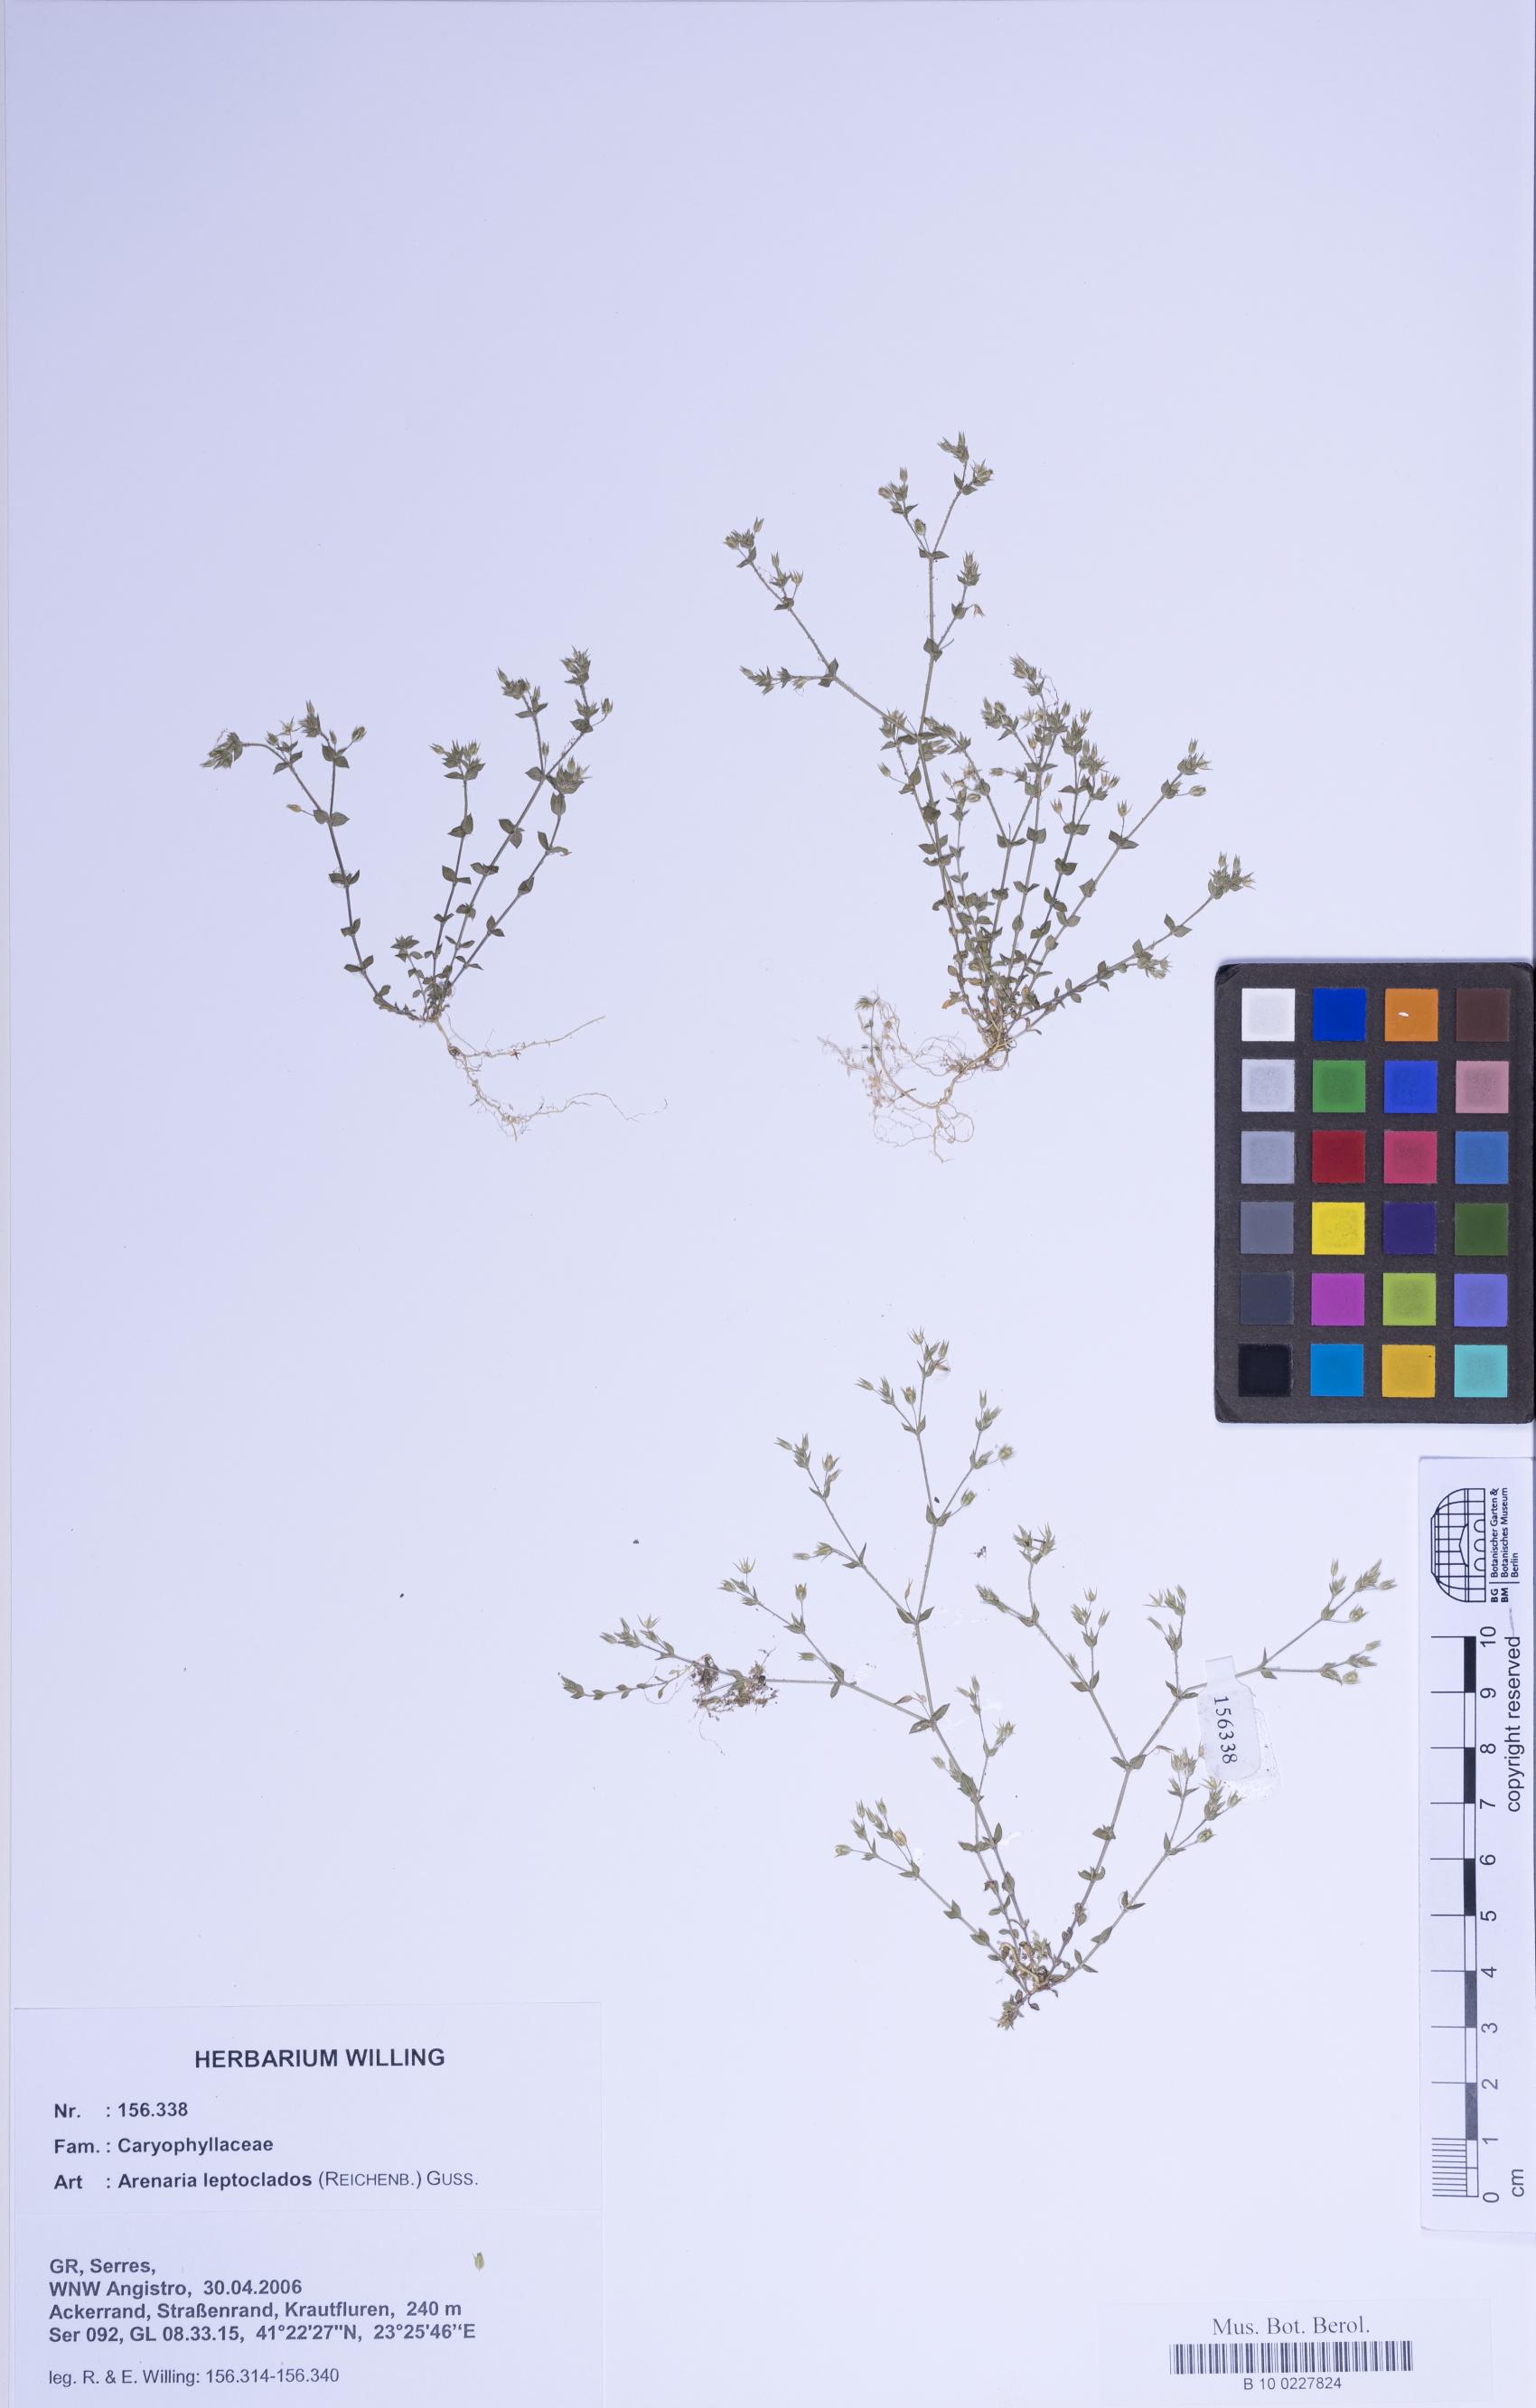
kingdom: Plantae
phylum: Tracheophyta
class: Magnoliopsida
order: Caryophyllales
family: Caryophyllaceae
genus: Arenaria
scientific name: Arenaria leptoclados
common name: Thyme-leaved sandwort
